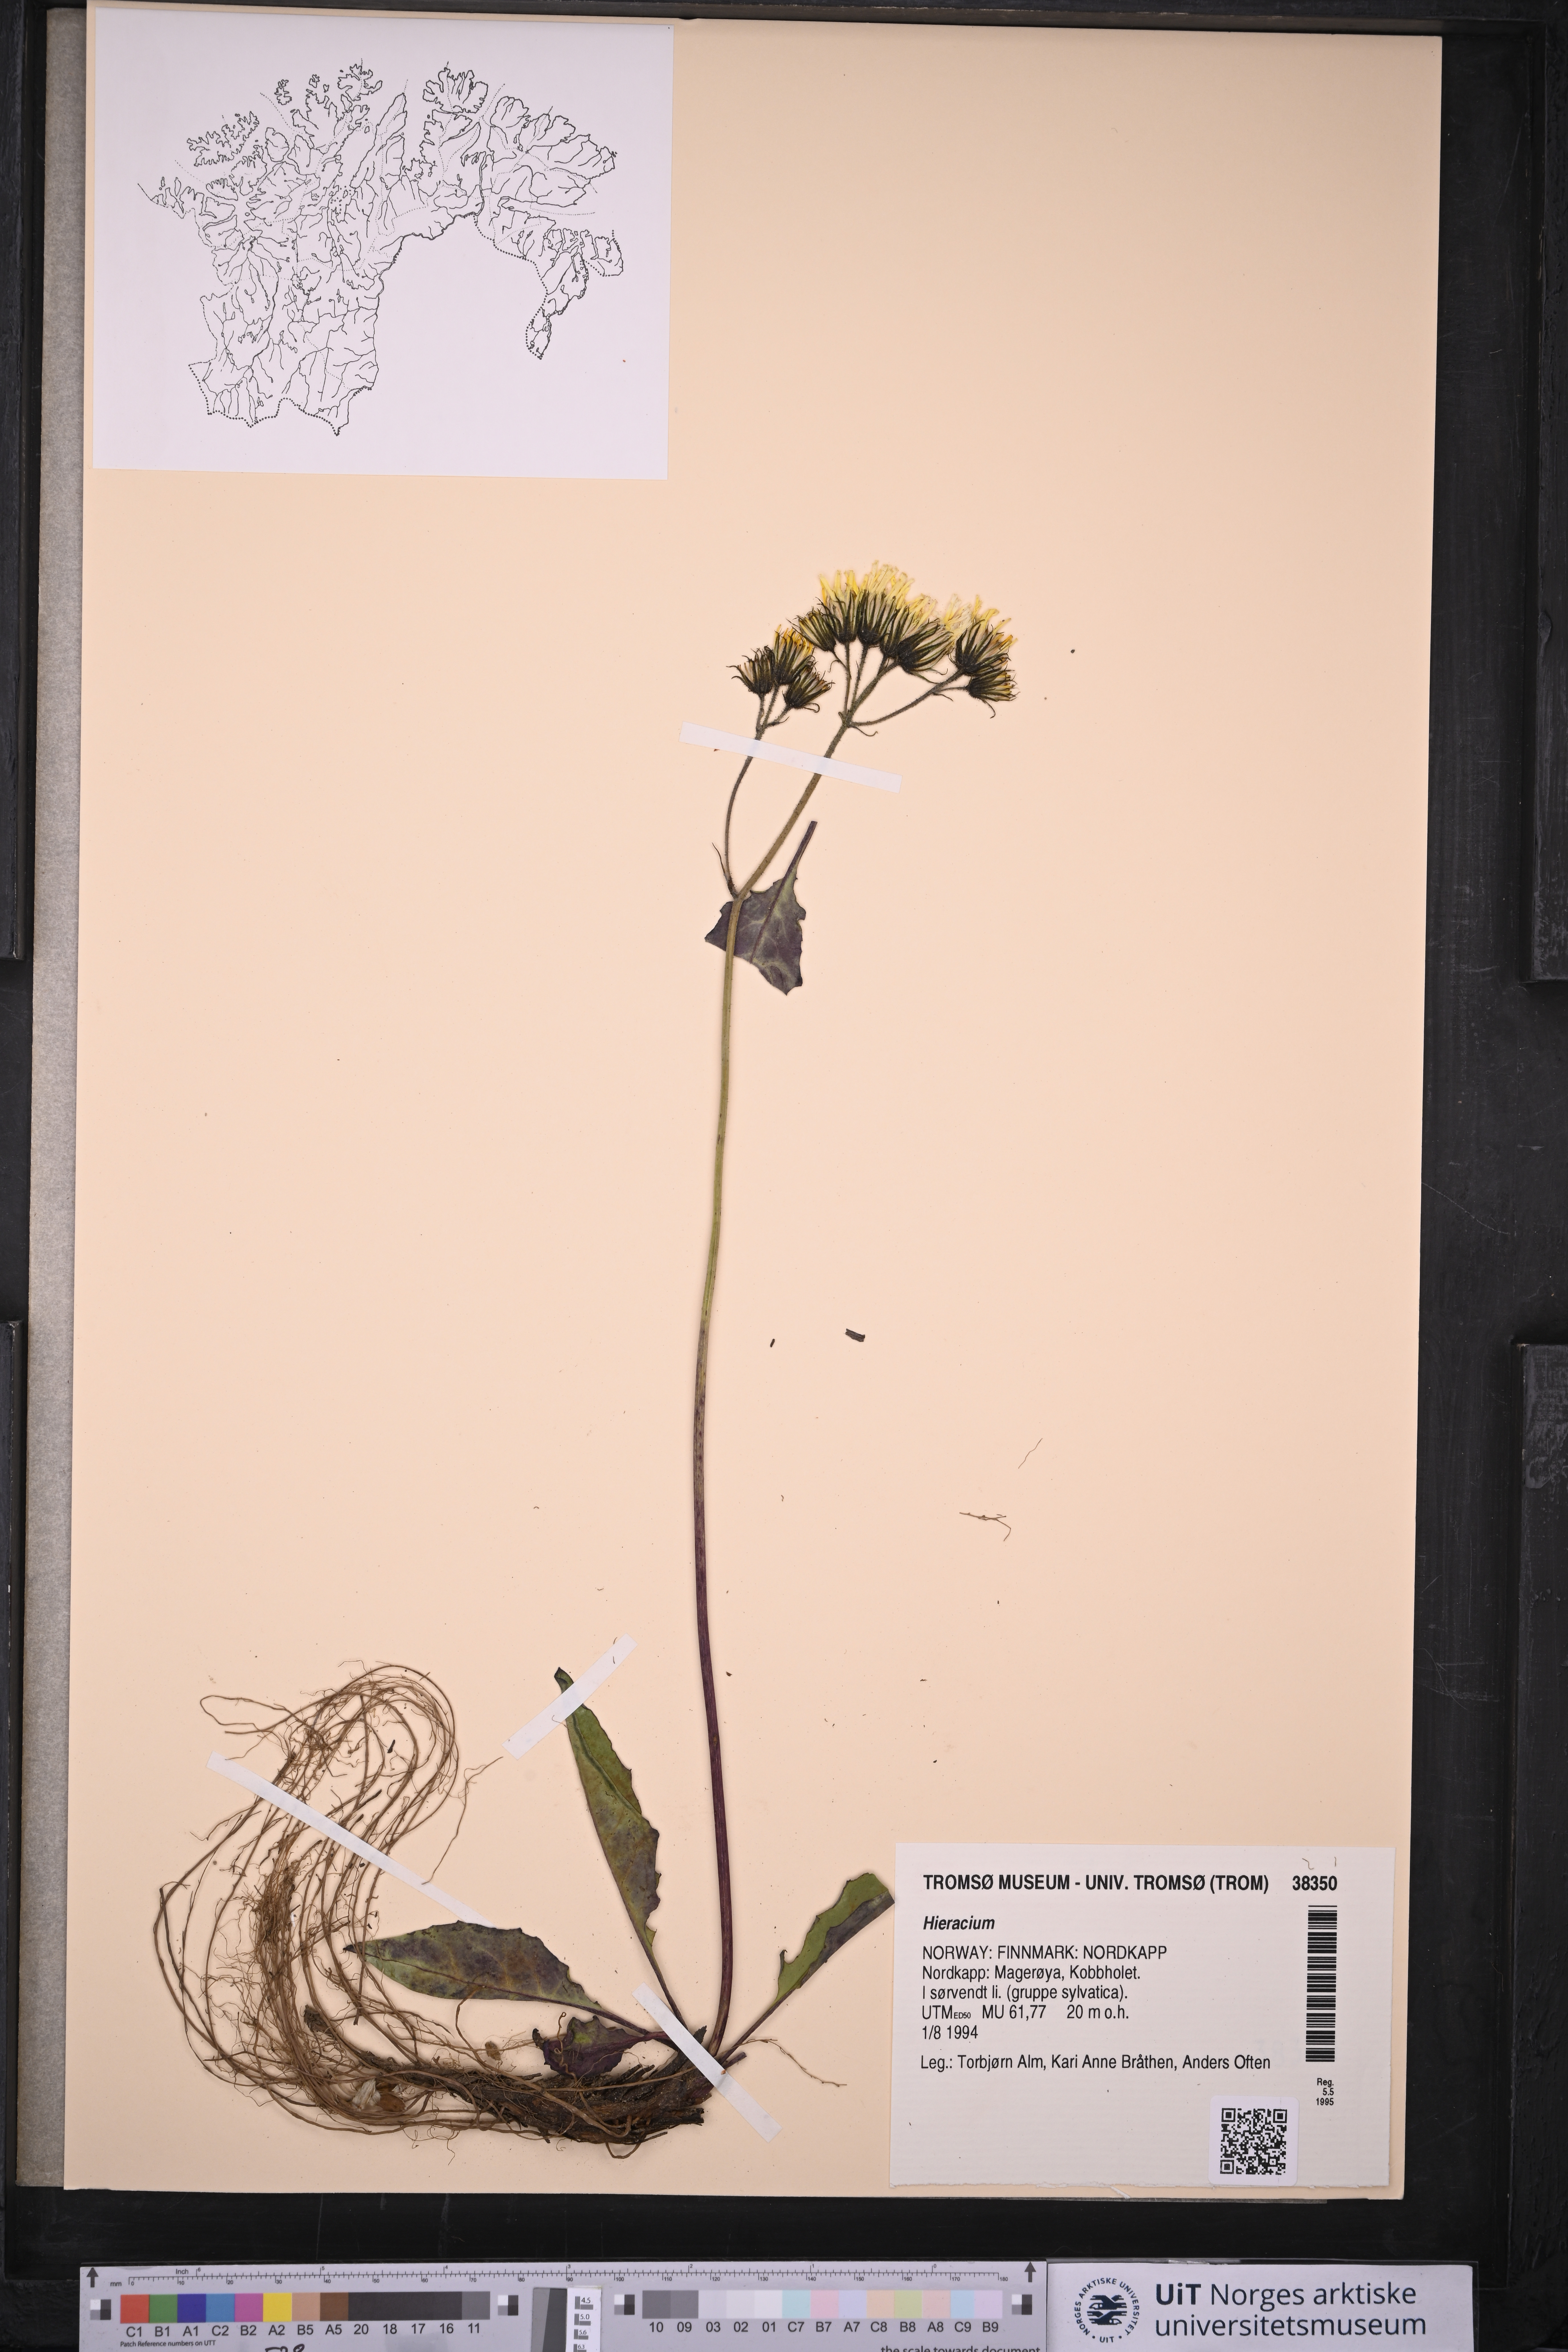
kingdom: Plantae
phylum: Tracheophyta
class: Magnoliopsida
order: Asterales
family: Asteraceae
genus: Hieracium
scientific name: Hieracium
